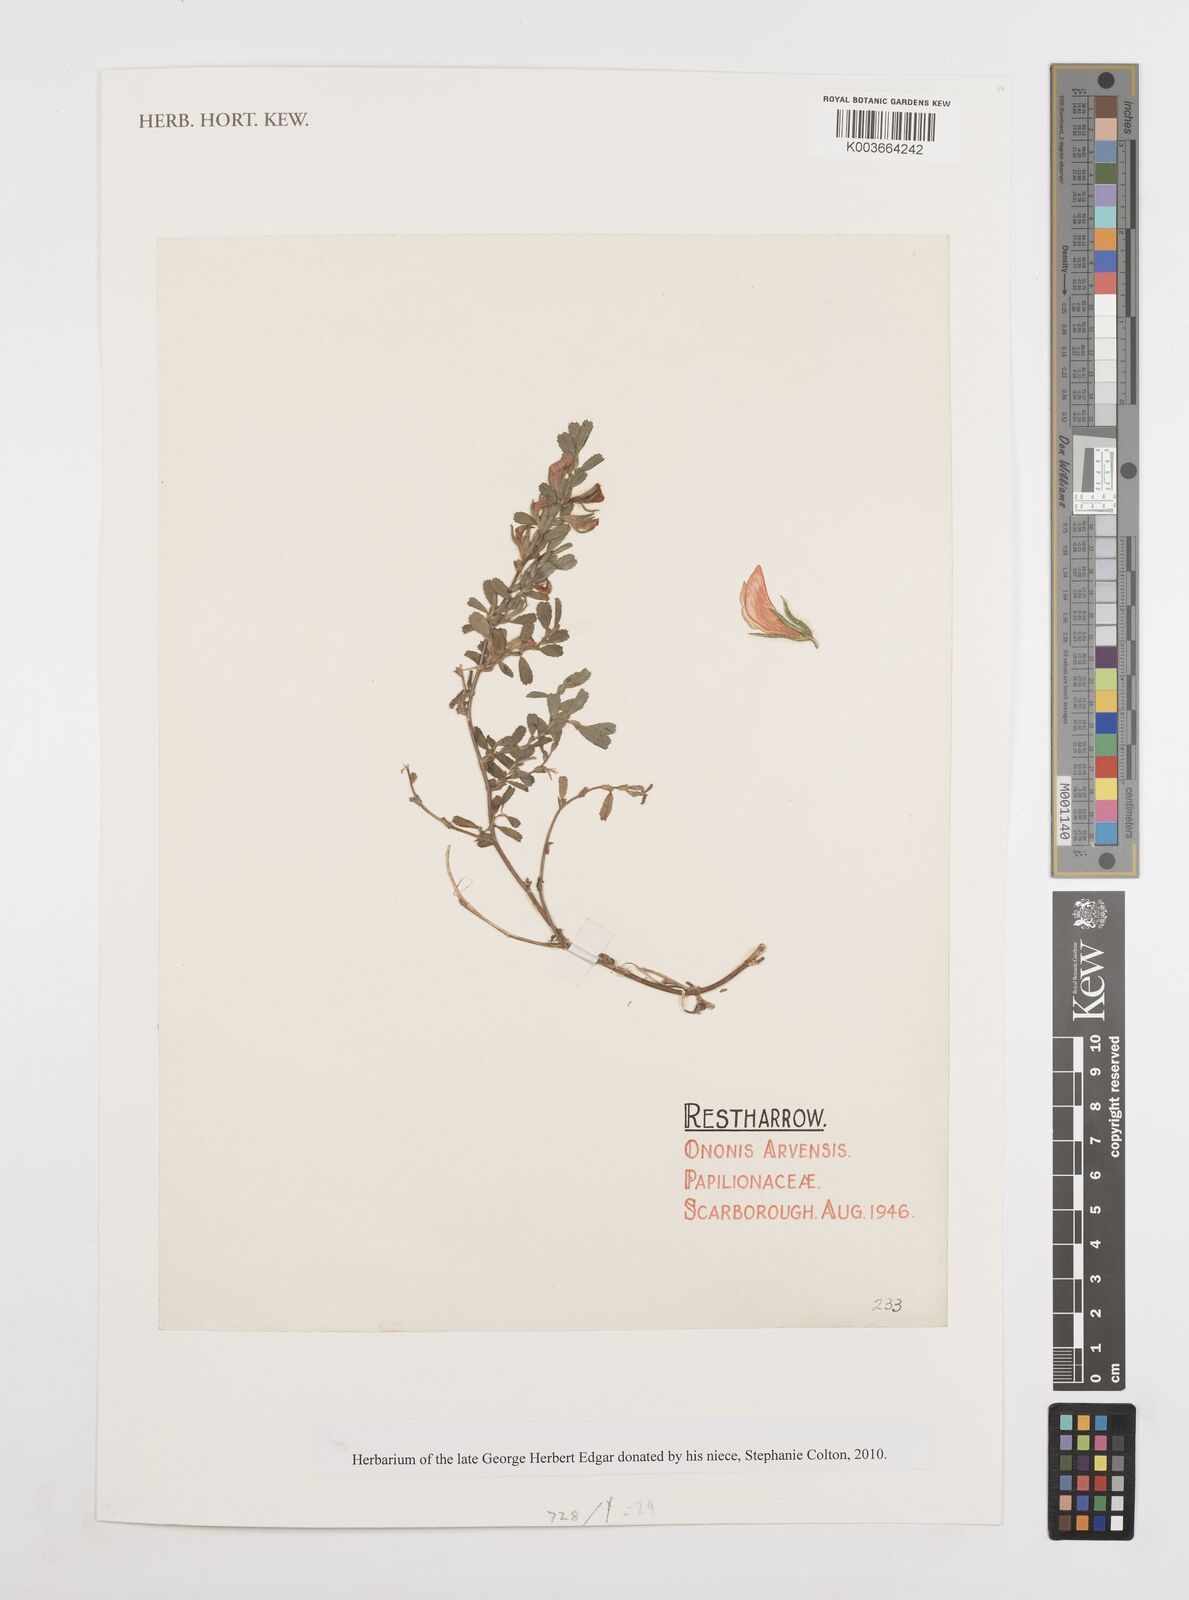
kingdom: Plantae
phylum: Tracheophyta
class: Magnoliopsida
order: Fabales
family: Fabaceae
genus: Ononis
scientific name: Ononis spinosa
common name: Spiny restharrow
